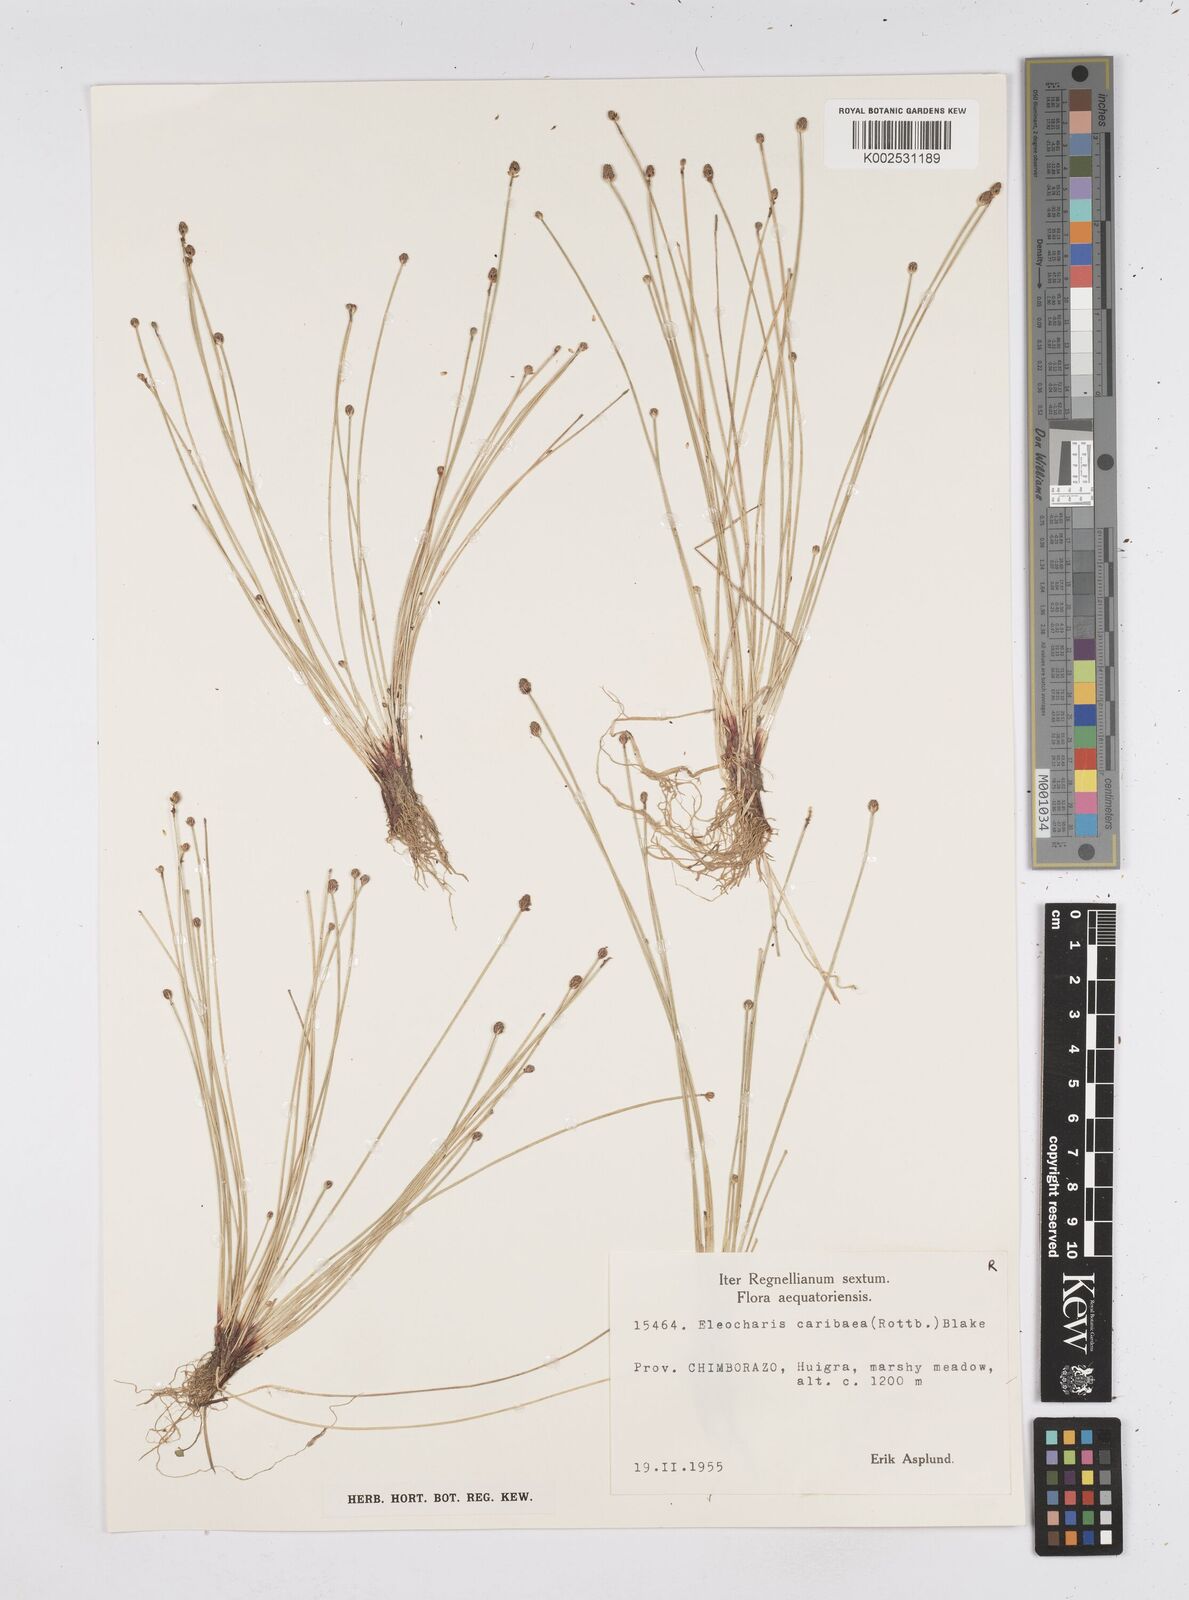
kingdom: Plantae
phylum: Tracheophyta
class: Liliopsida
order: Poales
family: Cyperaceae
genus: Eleocharis
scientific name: Eleocharis geniculata
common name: Canada spikesedge
